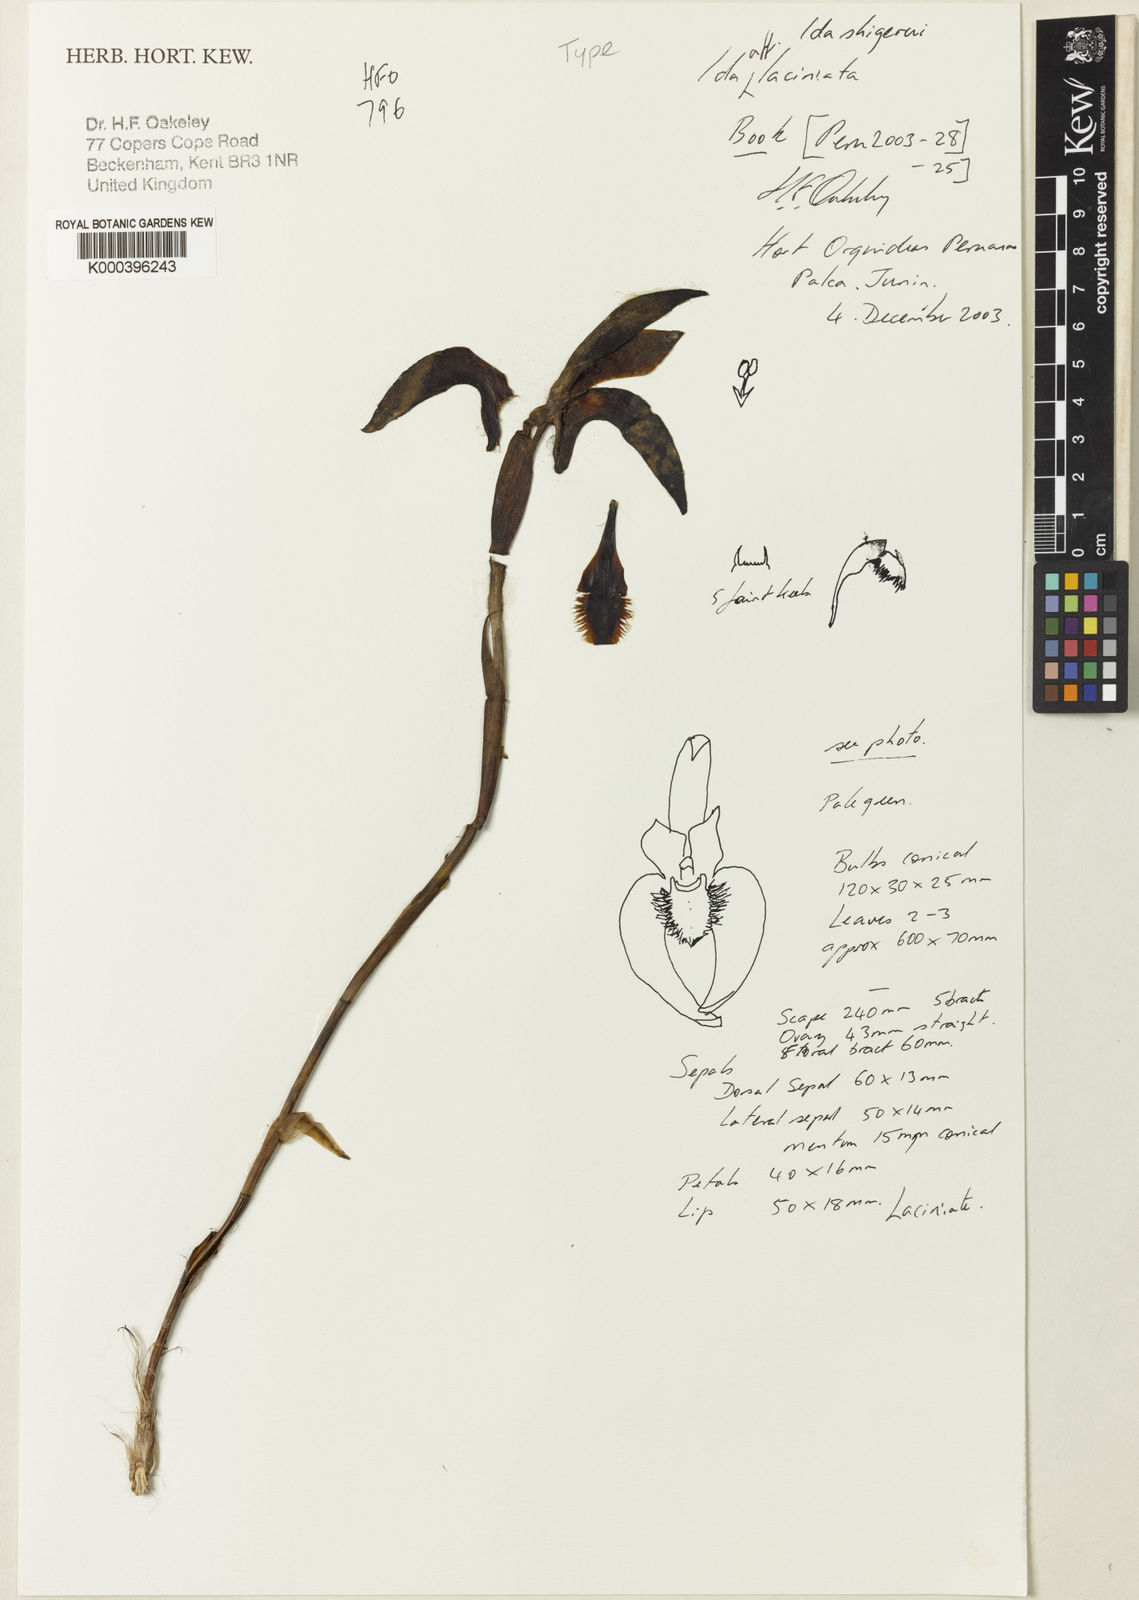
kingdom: Plantae
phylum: Tracheophyta
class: Liliopsida
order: Asparagales
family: Orchidaceae
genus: Ida
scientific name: Ida shigerui
